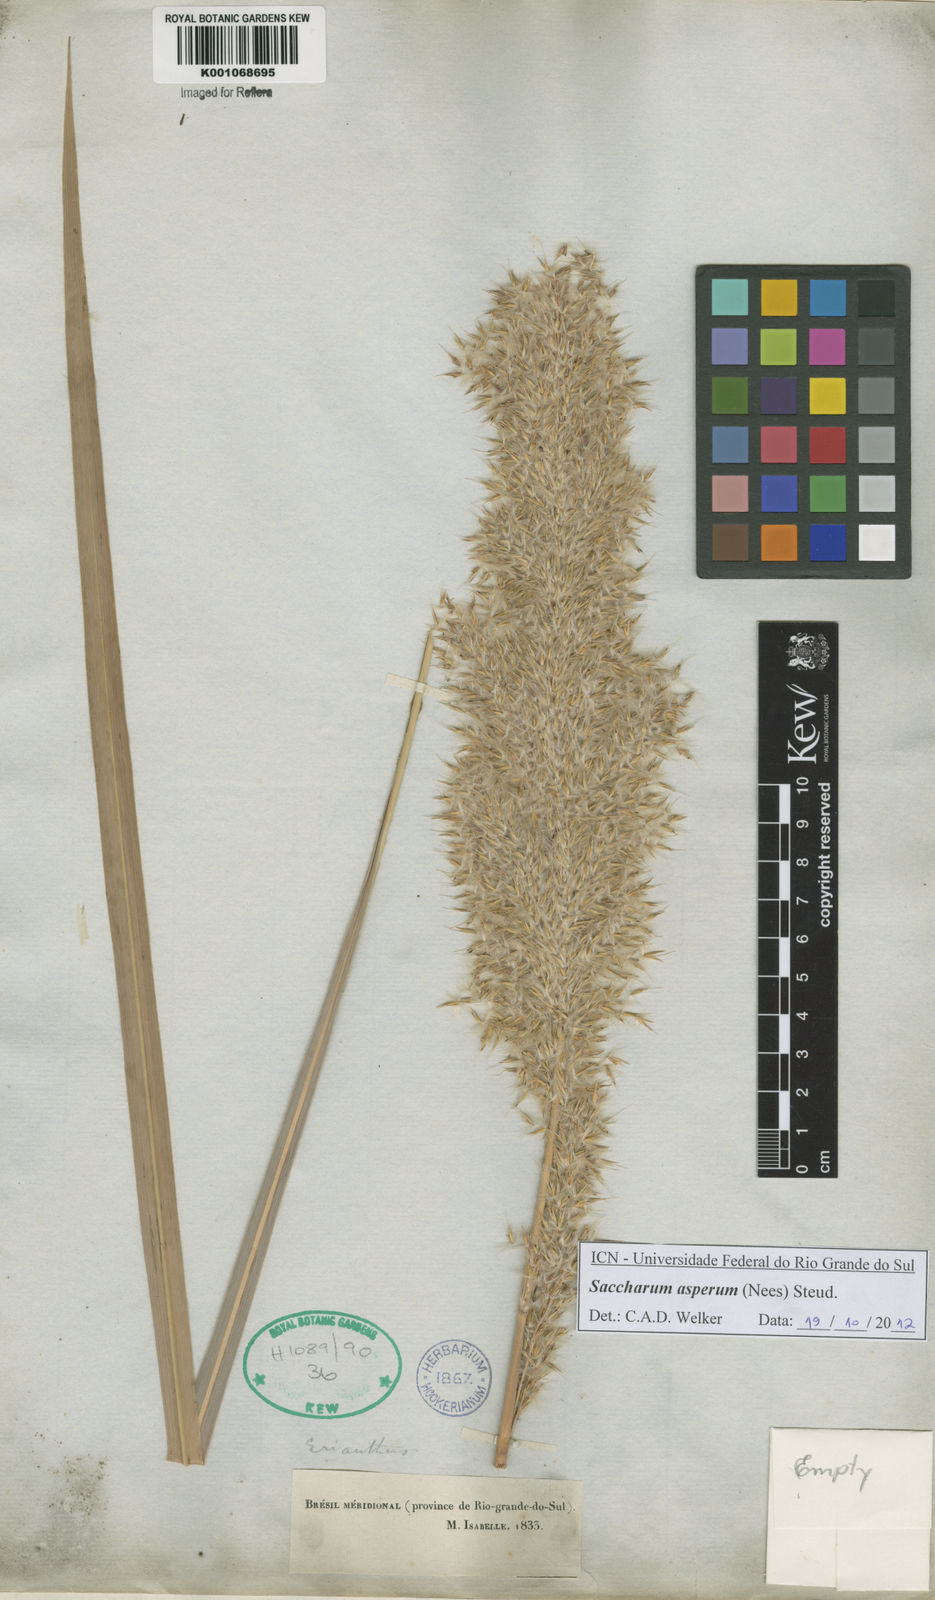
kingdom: Plantae
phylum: Tracheophyta
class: Liliopsida
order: Poales
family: Poaceae
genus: Erianthus
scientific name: Erianthus asper
